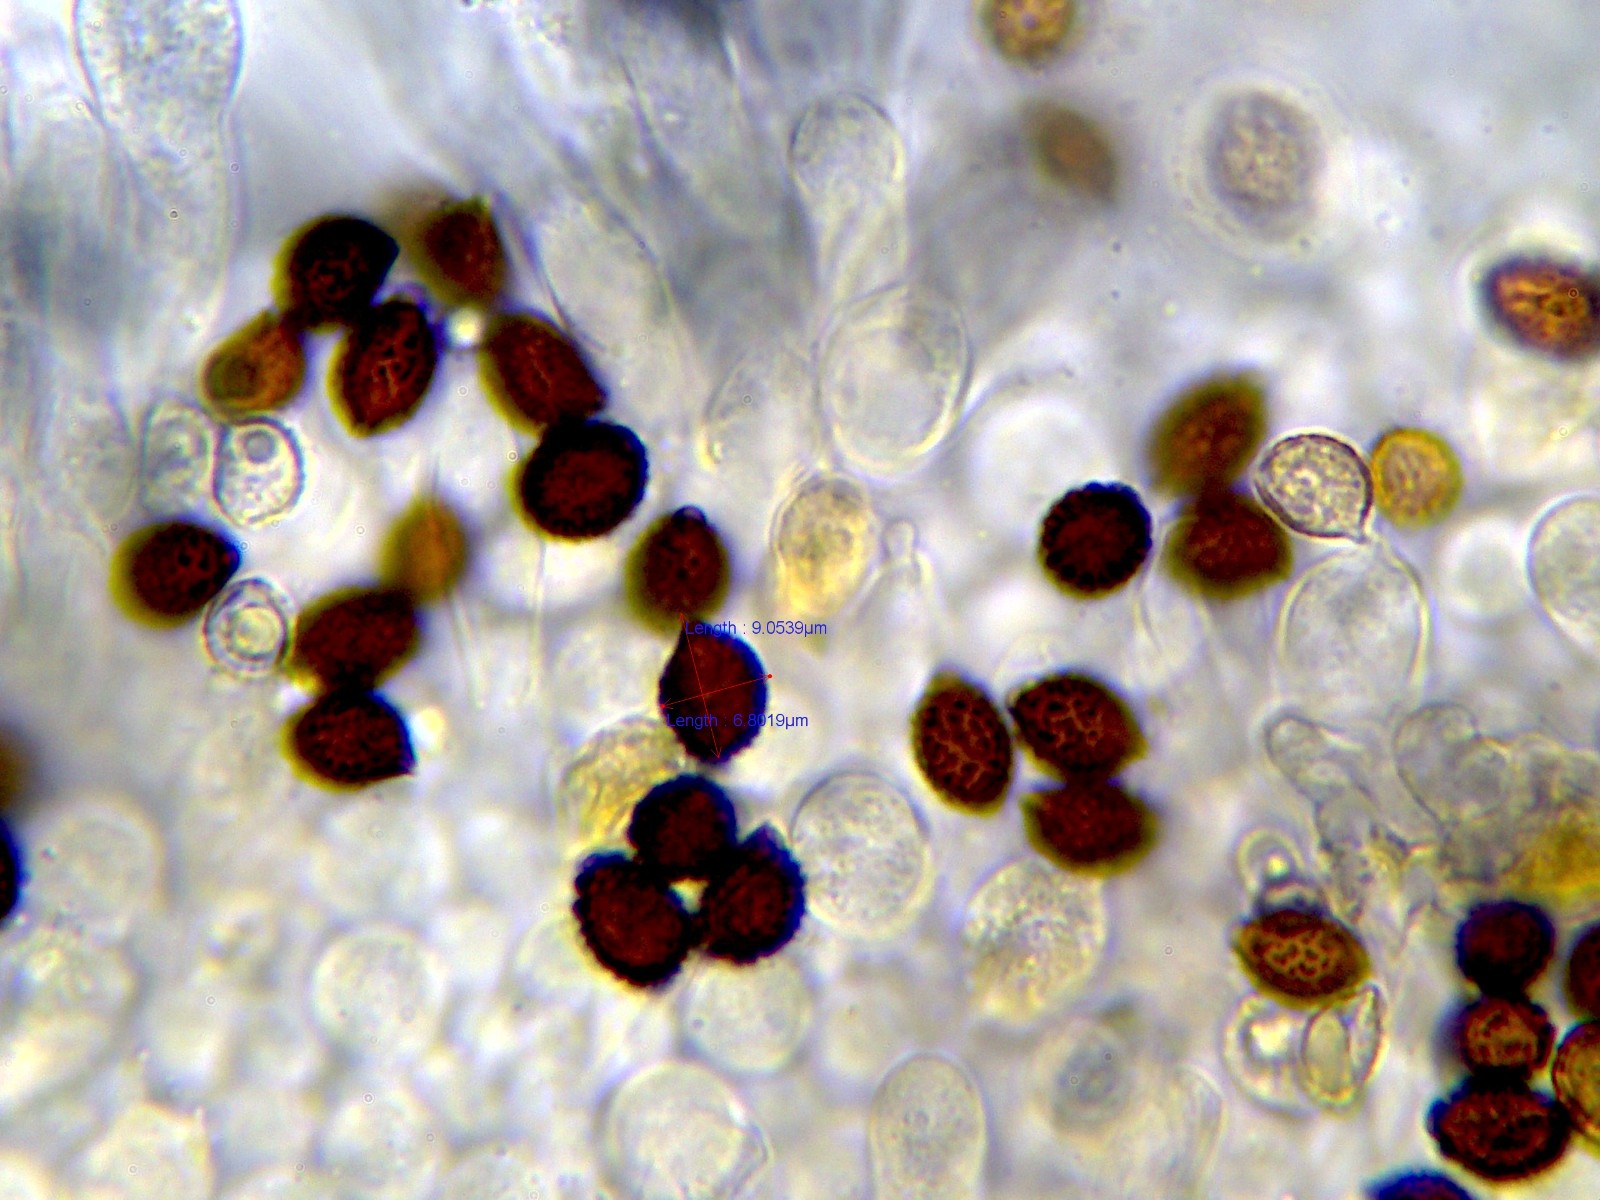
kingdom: Fungi
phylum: Basidiomycota
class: Agaricomycetes
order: Agaricales
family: Psathyrellaceae
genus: Lacrymaria
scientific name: Lacrymaria lacrymabunda
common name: grædende mørkhat
